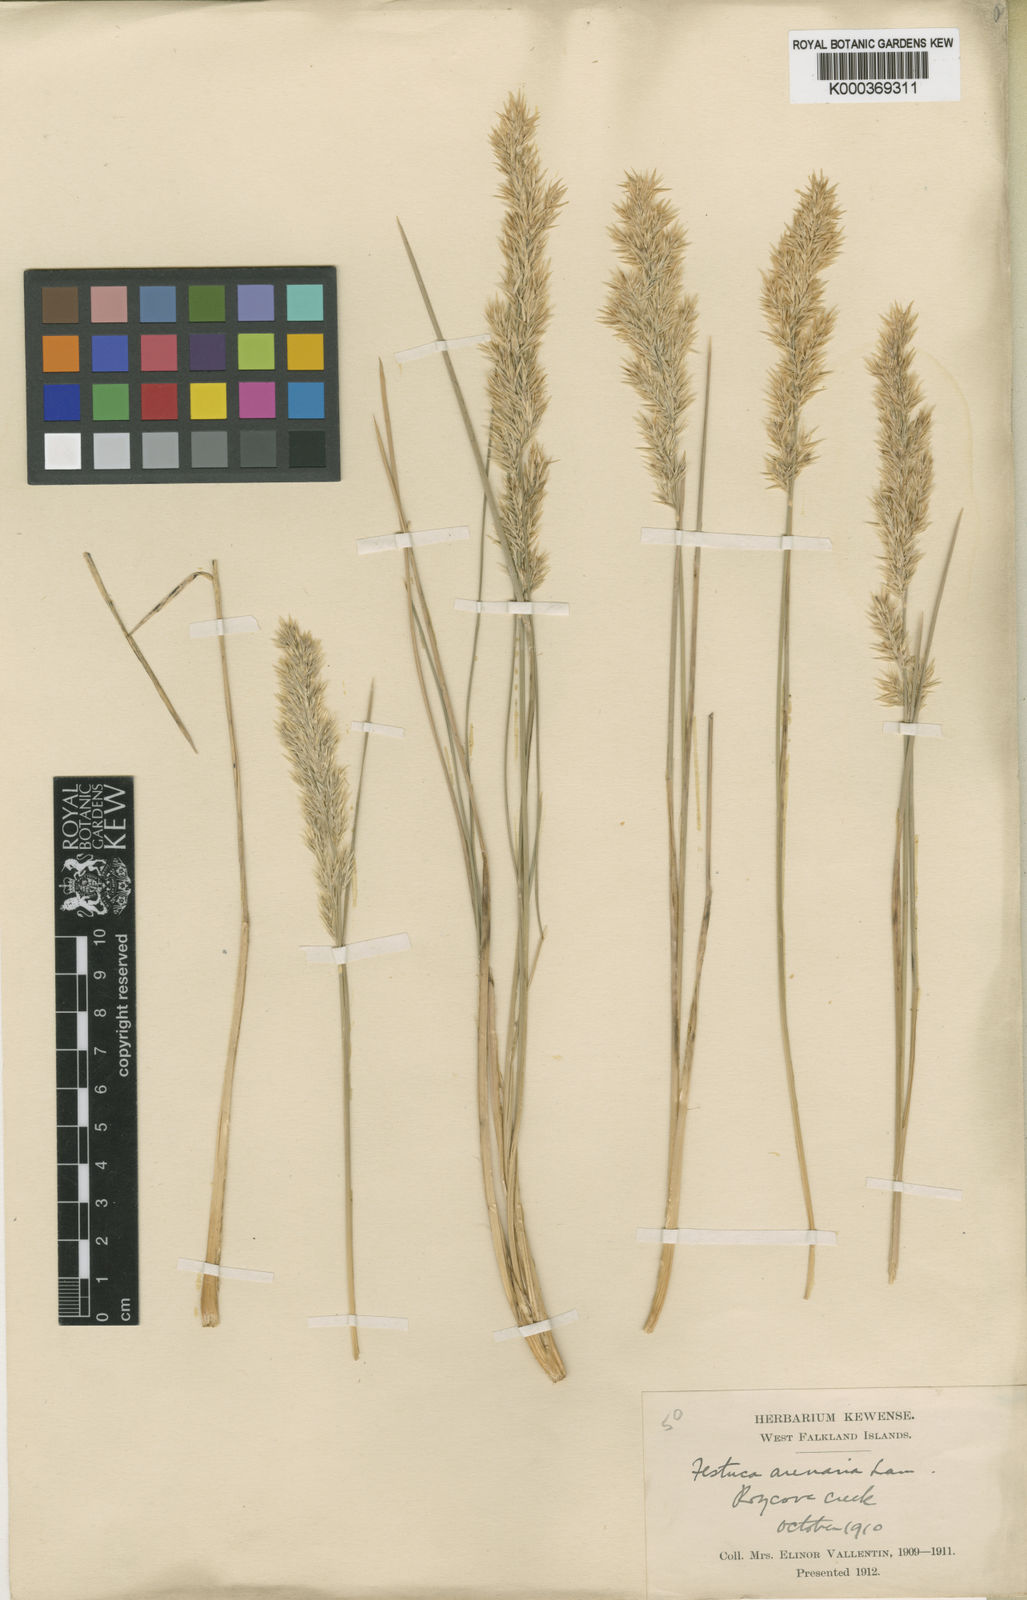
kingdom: Plantae
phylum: Tracheophyta
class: Liliopsida
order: Poales
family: Poaceae
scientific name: Poaceae
